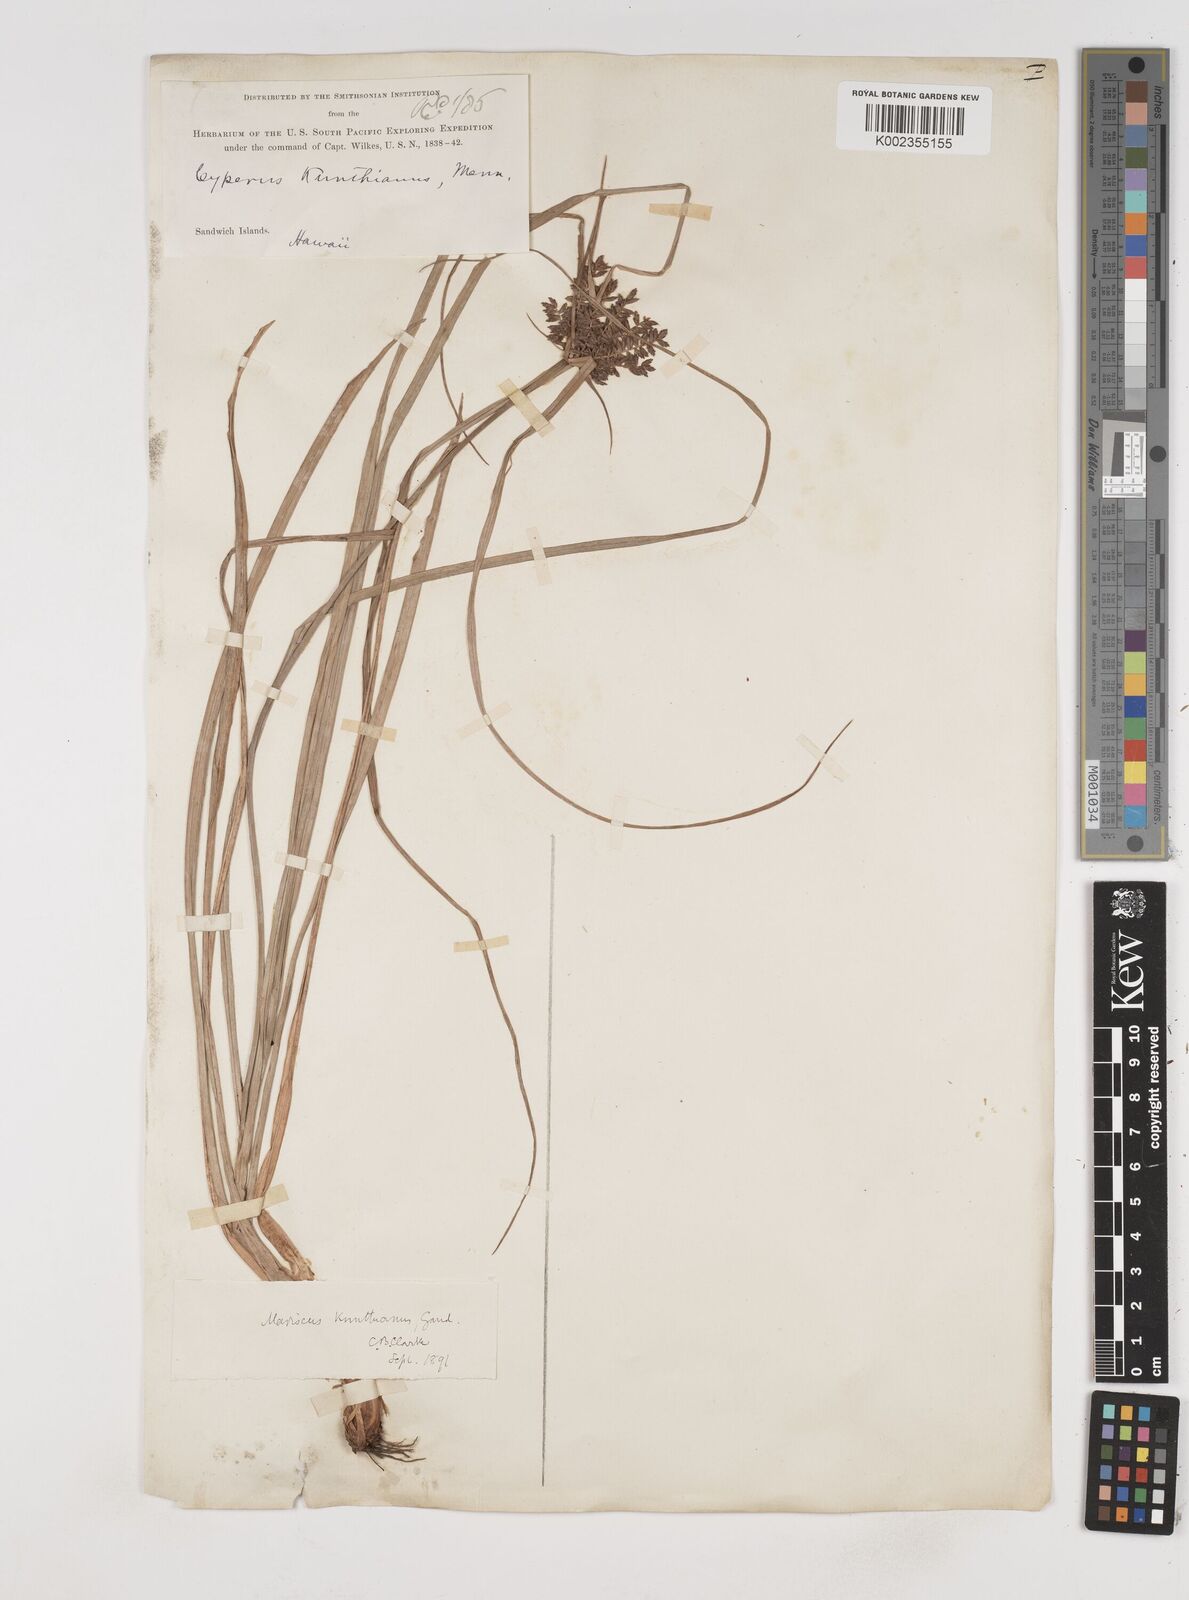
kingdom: Plantae
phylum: Tracheophyta
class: Liliopsida
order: Poales
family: Cyperaceae
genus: Cyperus
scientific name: Cyperus hillebrandii
